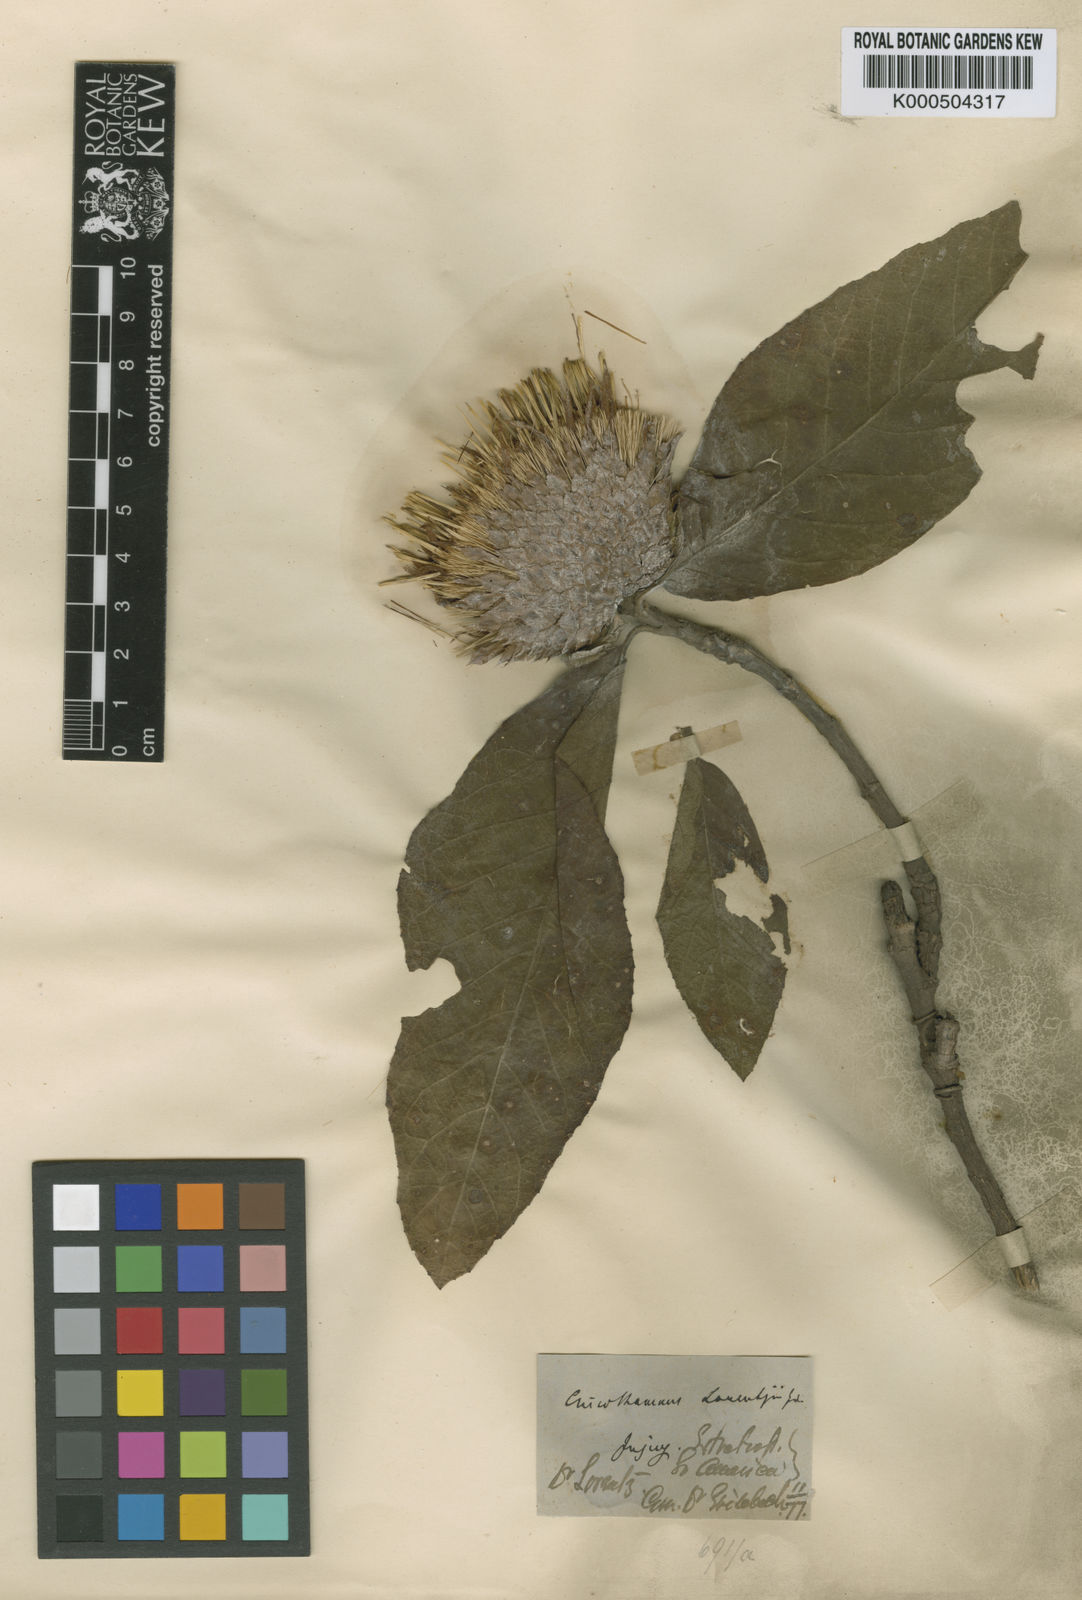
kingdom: Plantae
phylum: Tracheophyta
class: Magnoliopsida
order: Asterales
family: Asteraceae
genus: Cnicothamnus
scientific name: Cnicothamnus lorentzii
